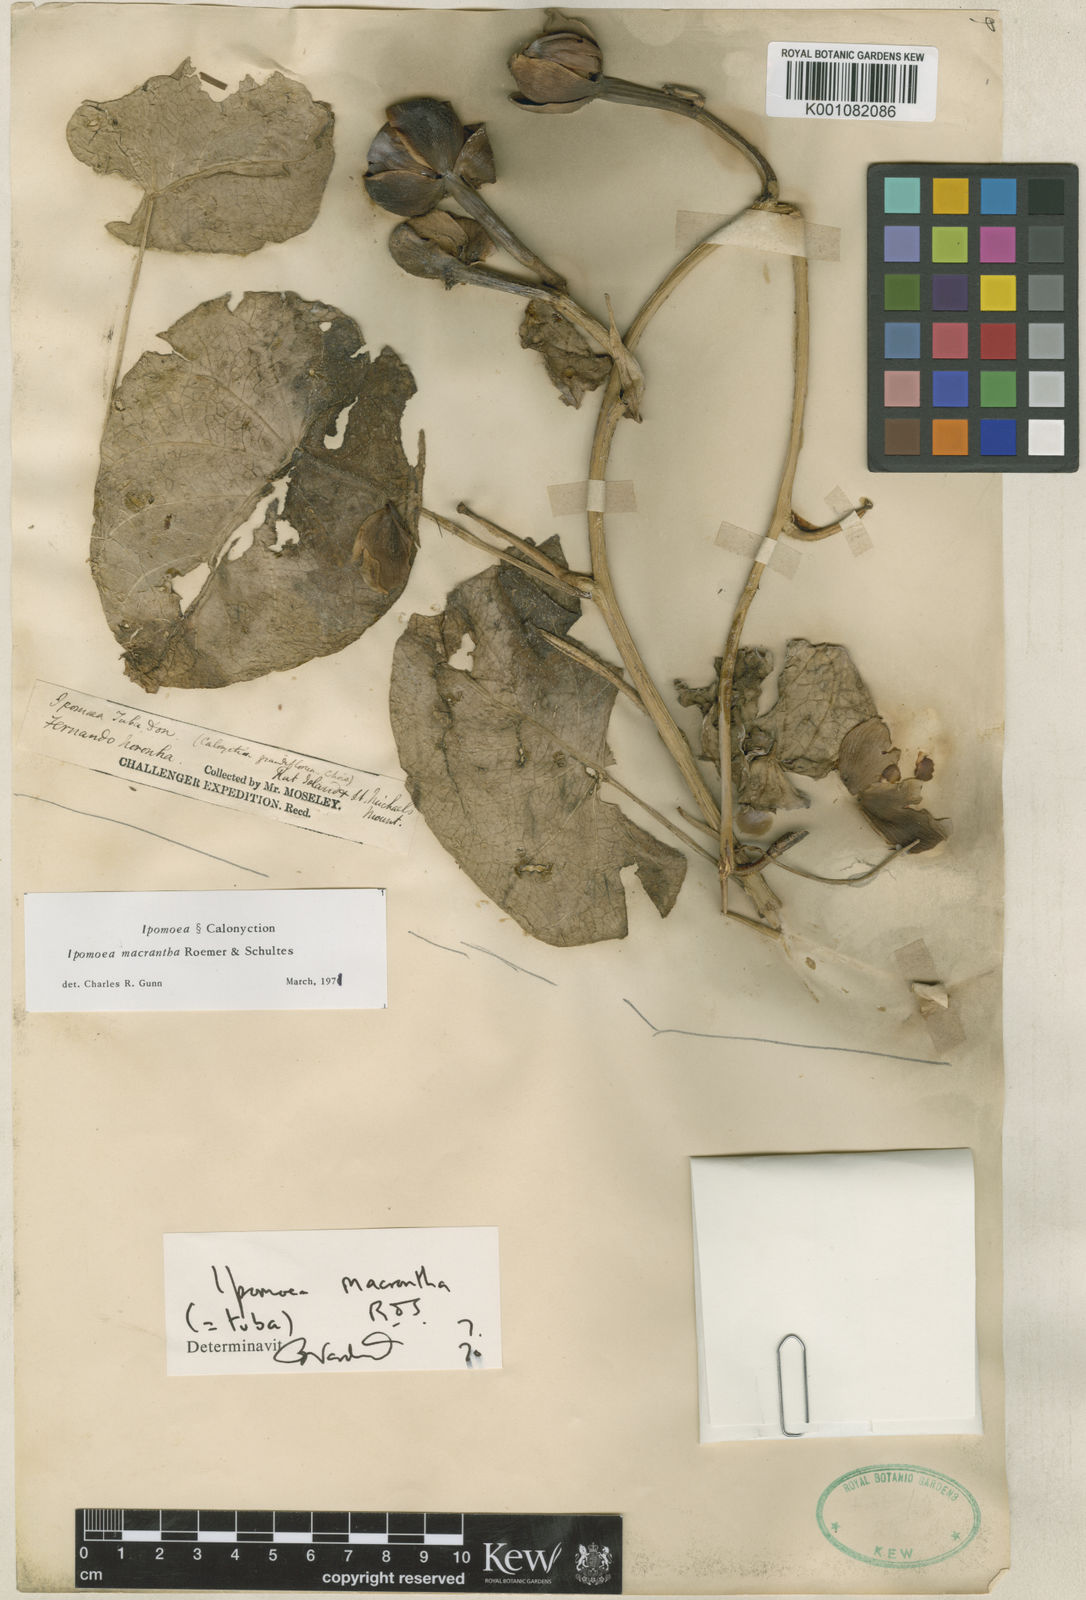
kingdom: Plantae
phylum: Tracheophyta
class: Magnoliopsida
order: Solanales
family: Convolvulaceae
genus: Ipomoea
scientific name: Ipomoea violacea
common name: Beach moonflower
